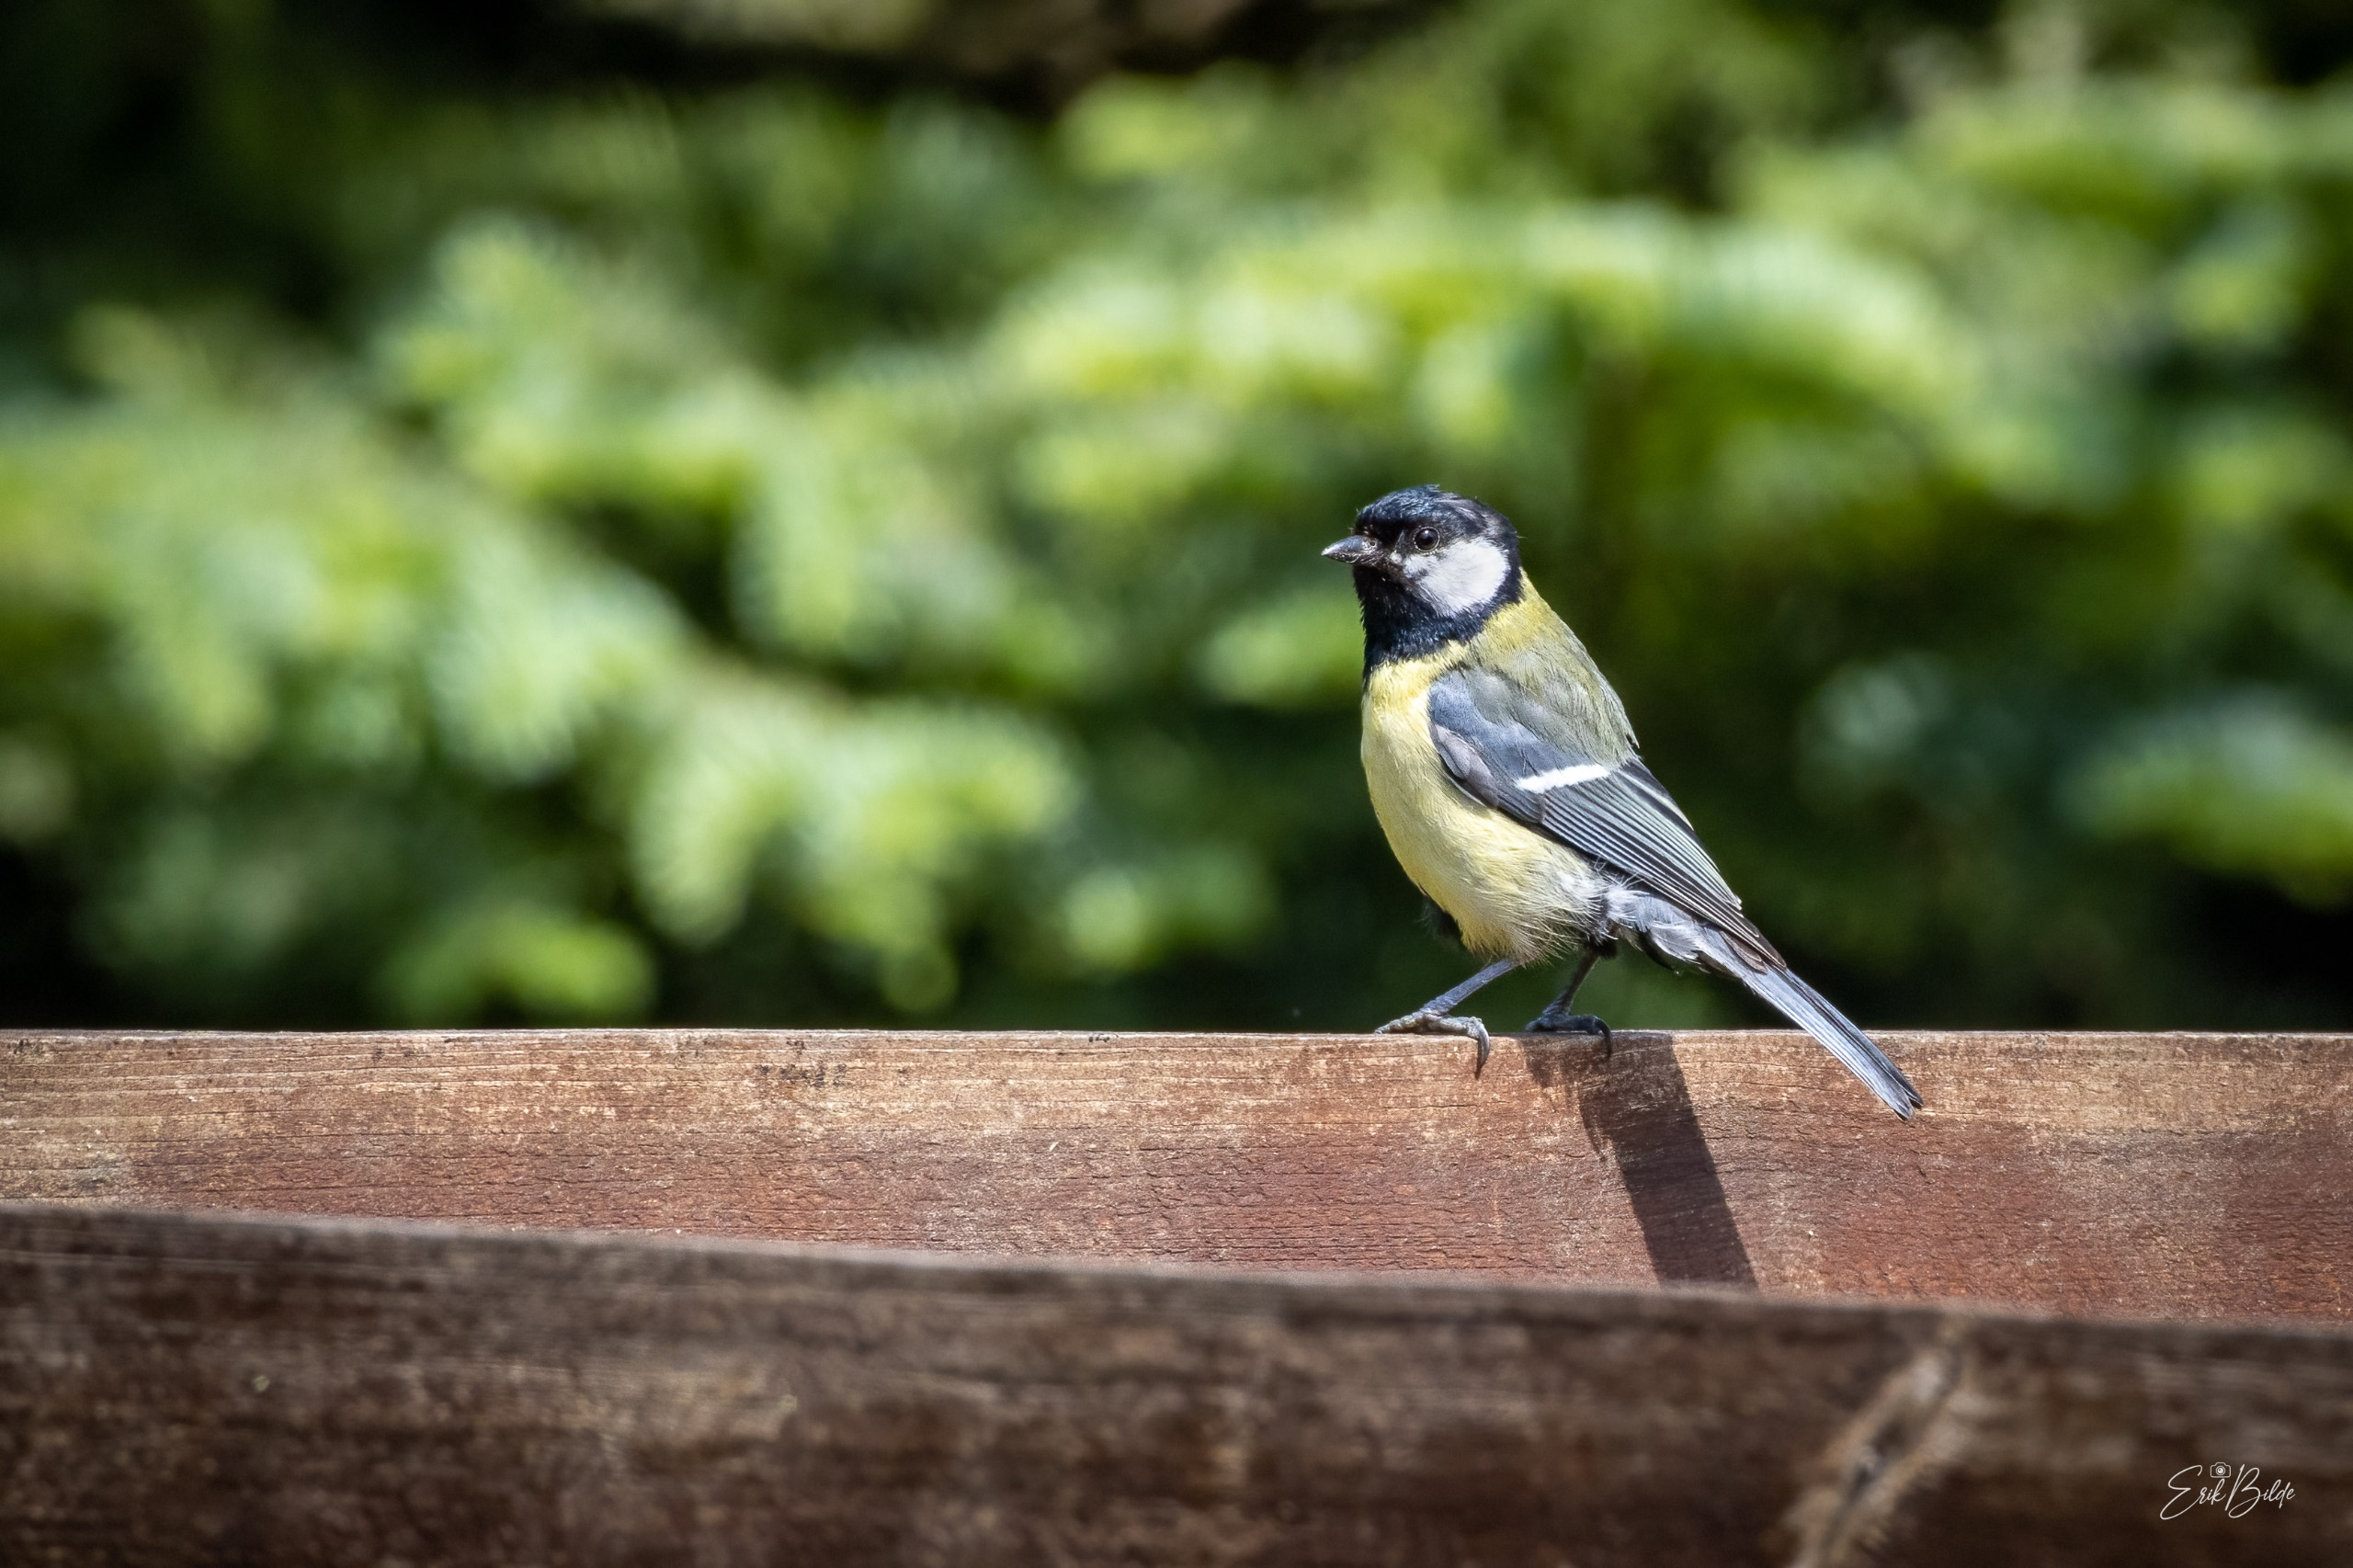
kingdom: Animalia
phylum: Chordata
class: Aves
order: Passeriformes
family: Paridae
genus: Parus
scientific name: Parus major
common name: Musvit
